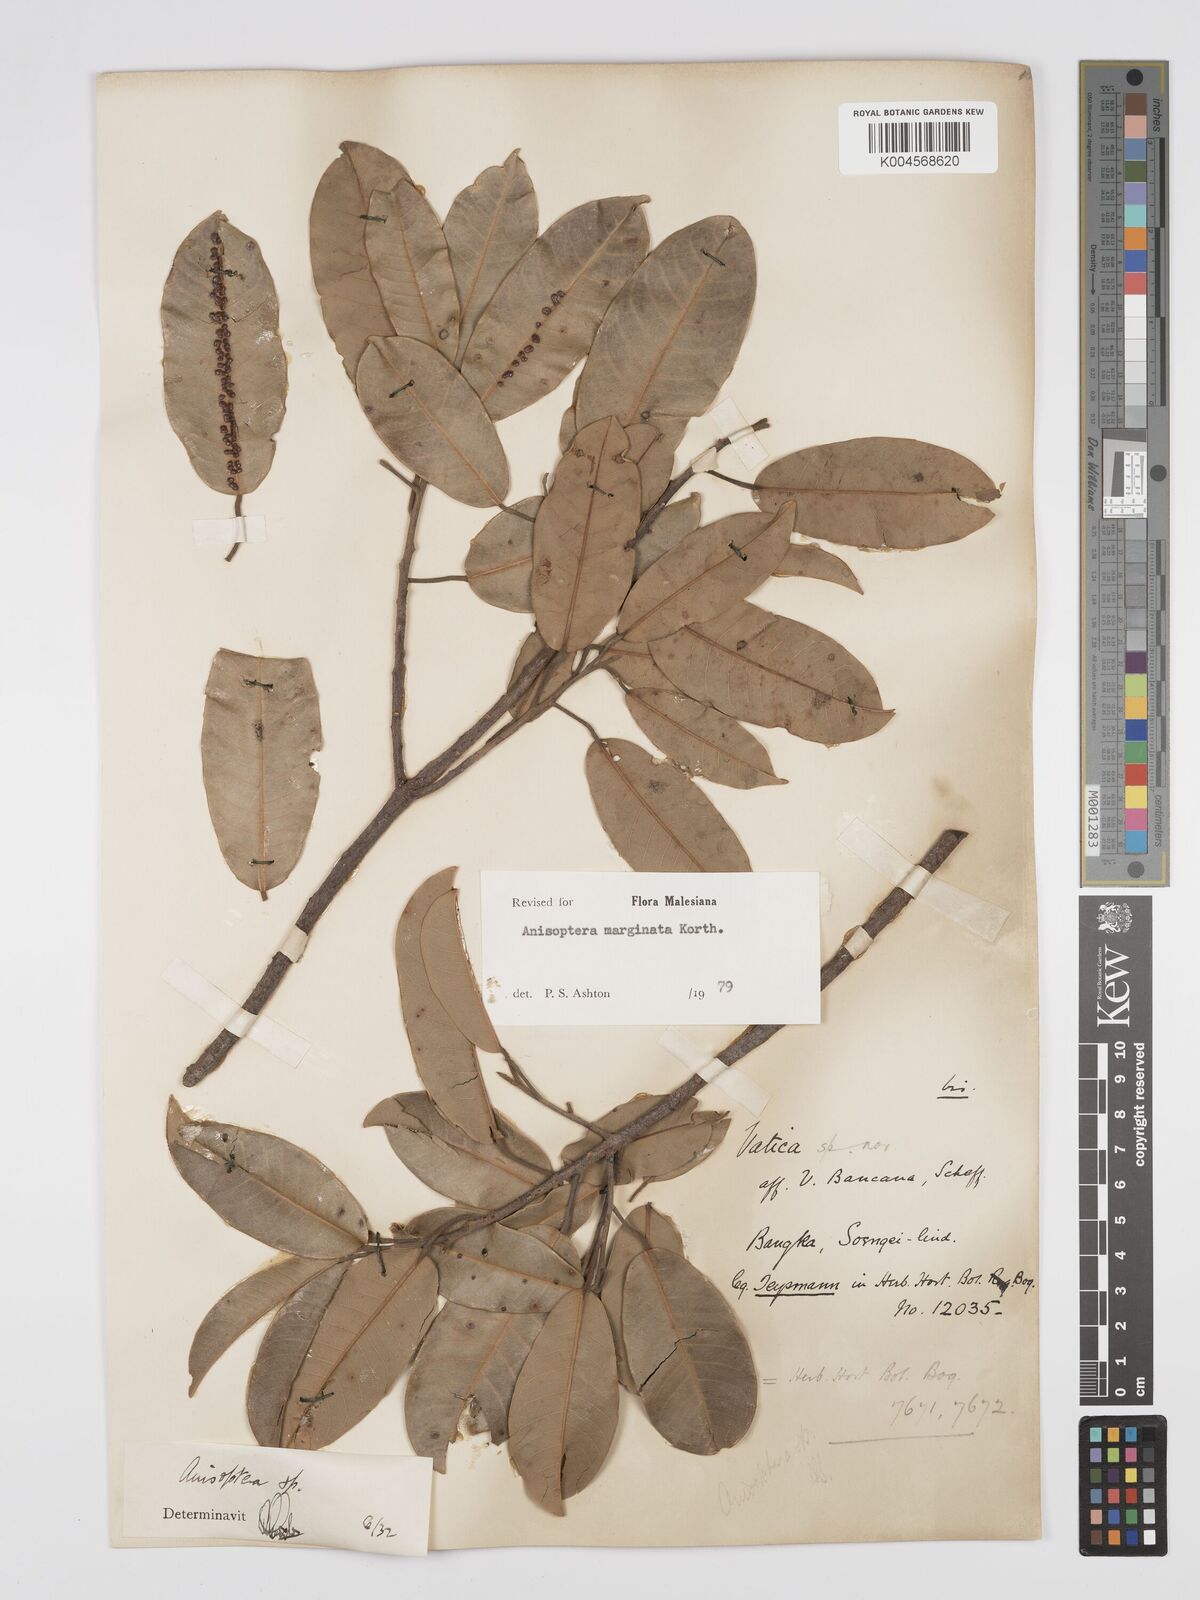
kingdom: Plantae
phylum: Tracheophyta
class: Magnoliopsida
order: Malvales
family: Dipterocarpaceae
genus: Anisoptera
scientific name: Anisoptera marginata
